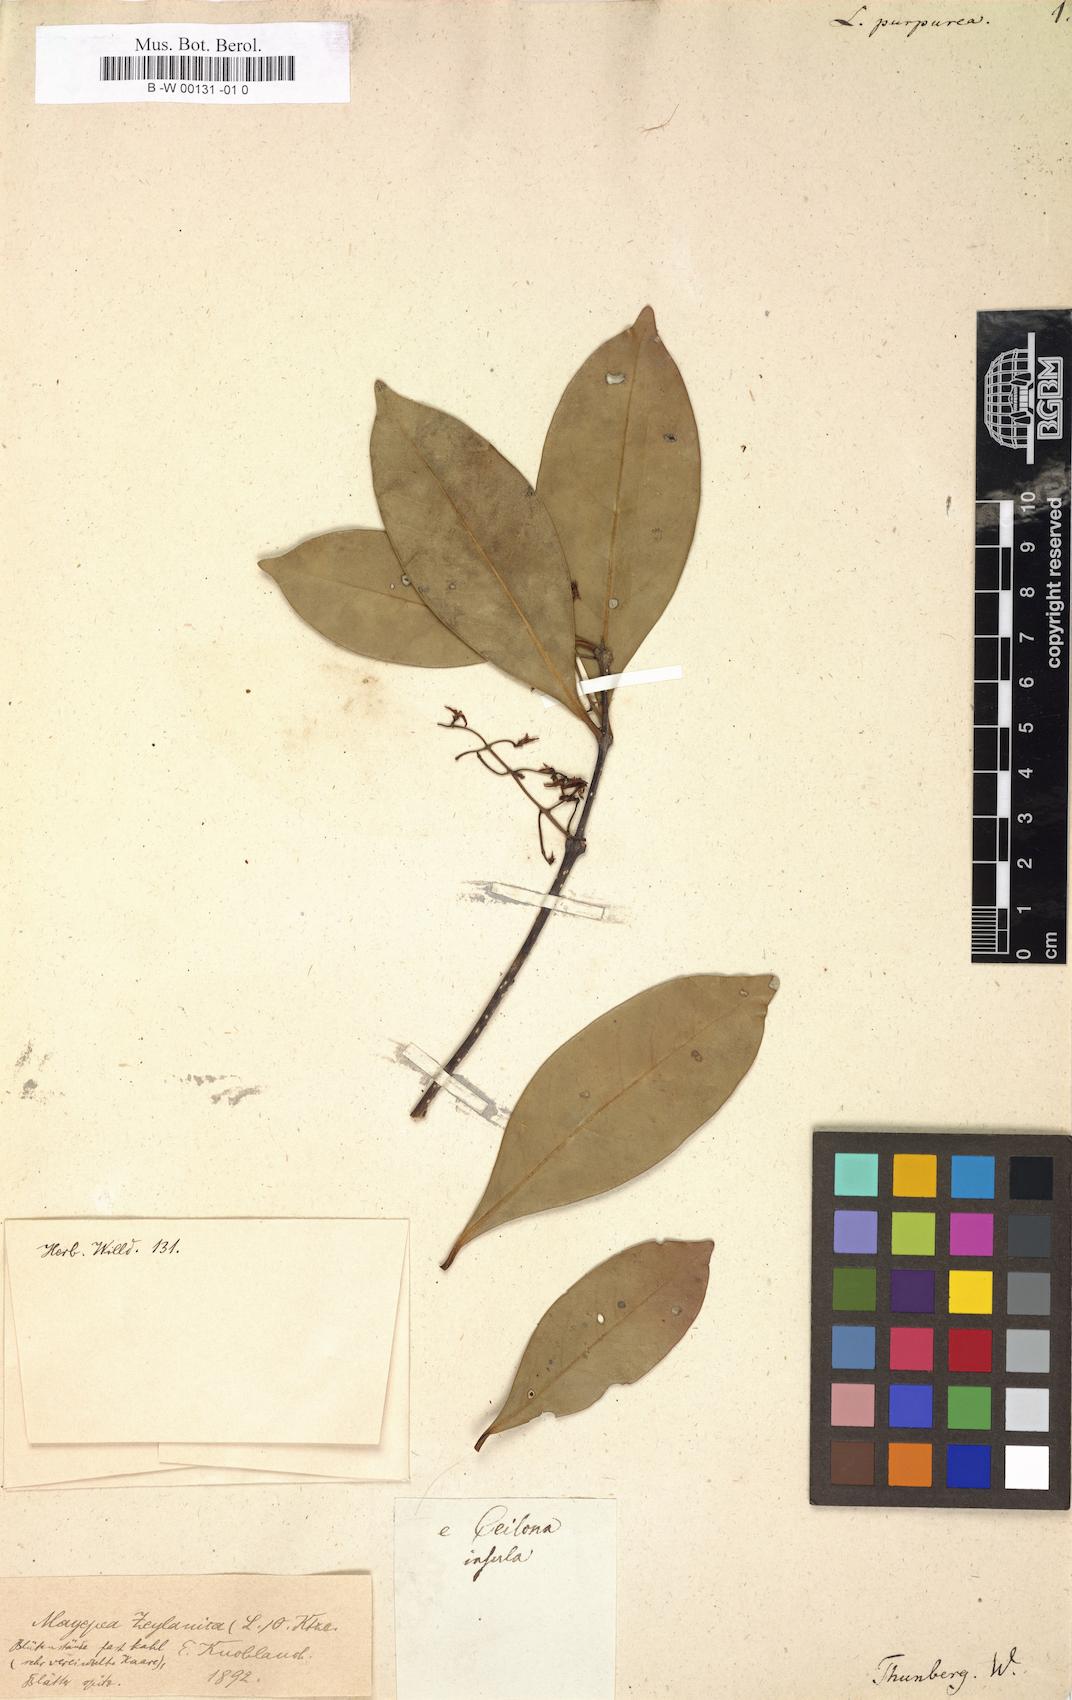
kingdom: Plantae
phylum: Tracheophyta
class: Magnoliopsida
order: Lamiales
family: Oleaceae
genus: Chionanthus
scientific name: Chionanthus purpureus
